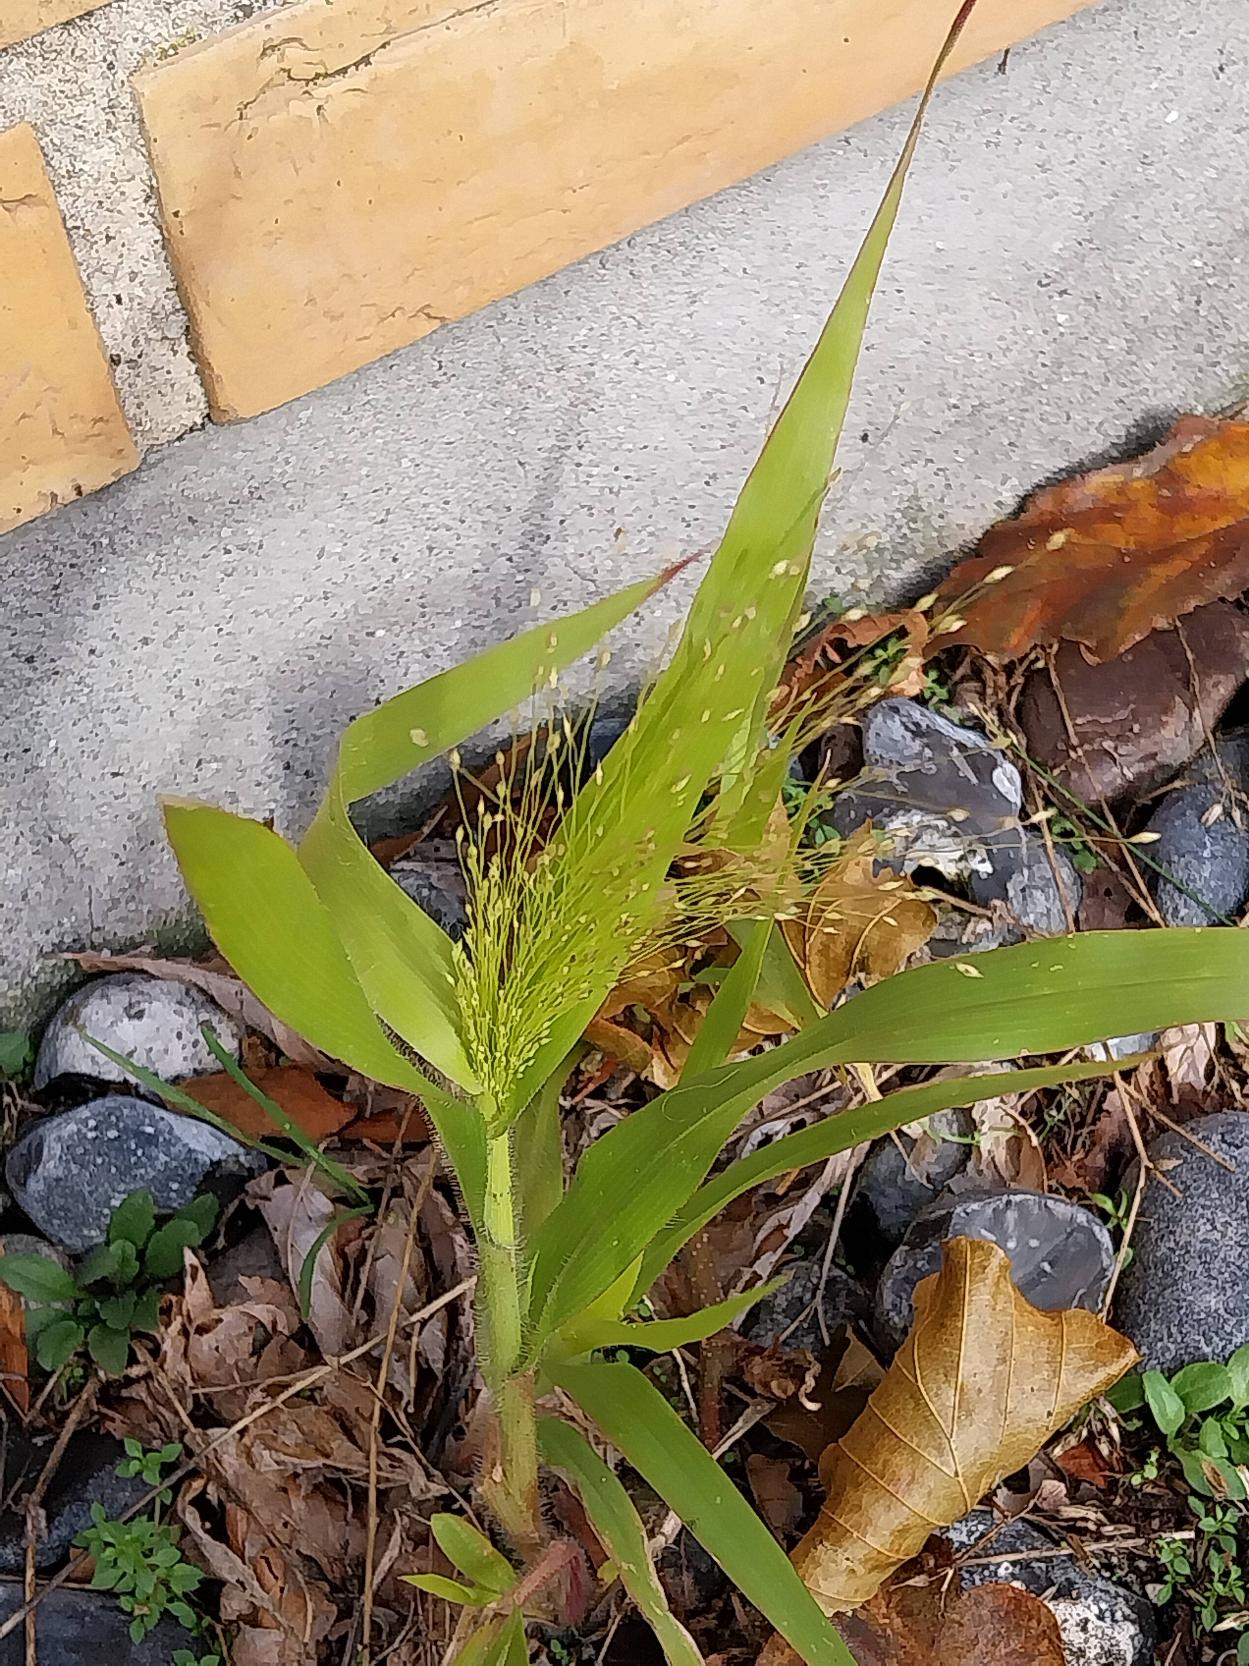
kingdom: Plantae
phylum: Tracheophyta
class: Liliopsida
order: Poales
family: Poaceae
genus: Panicum
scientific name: Panicum capillare
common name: Hårfin hirse
